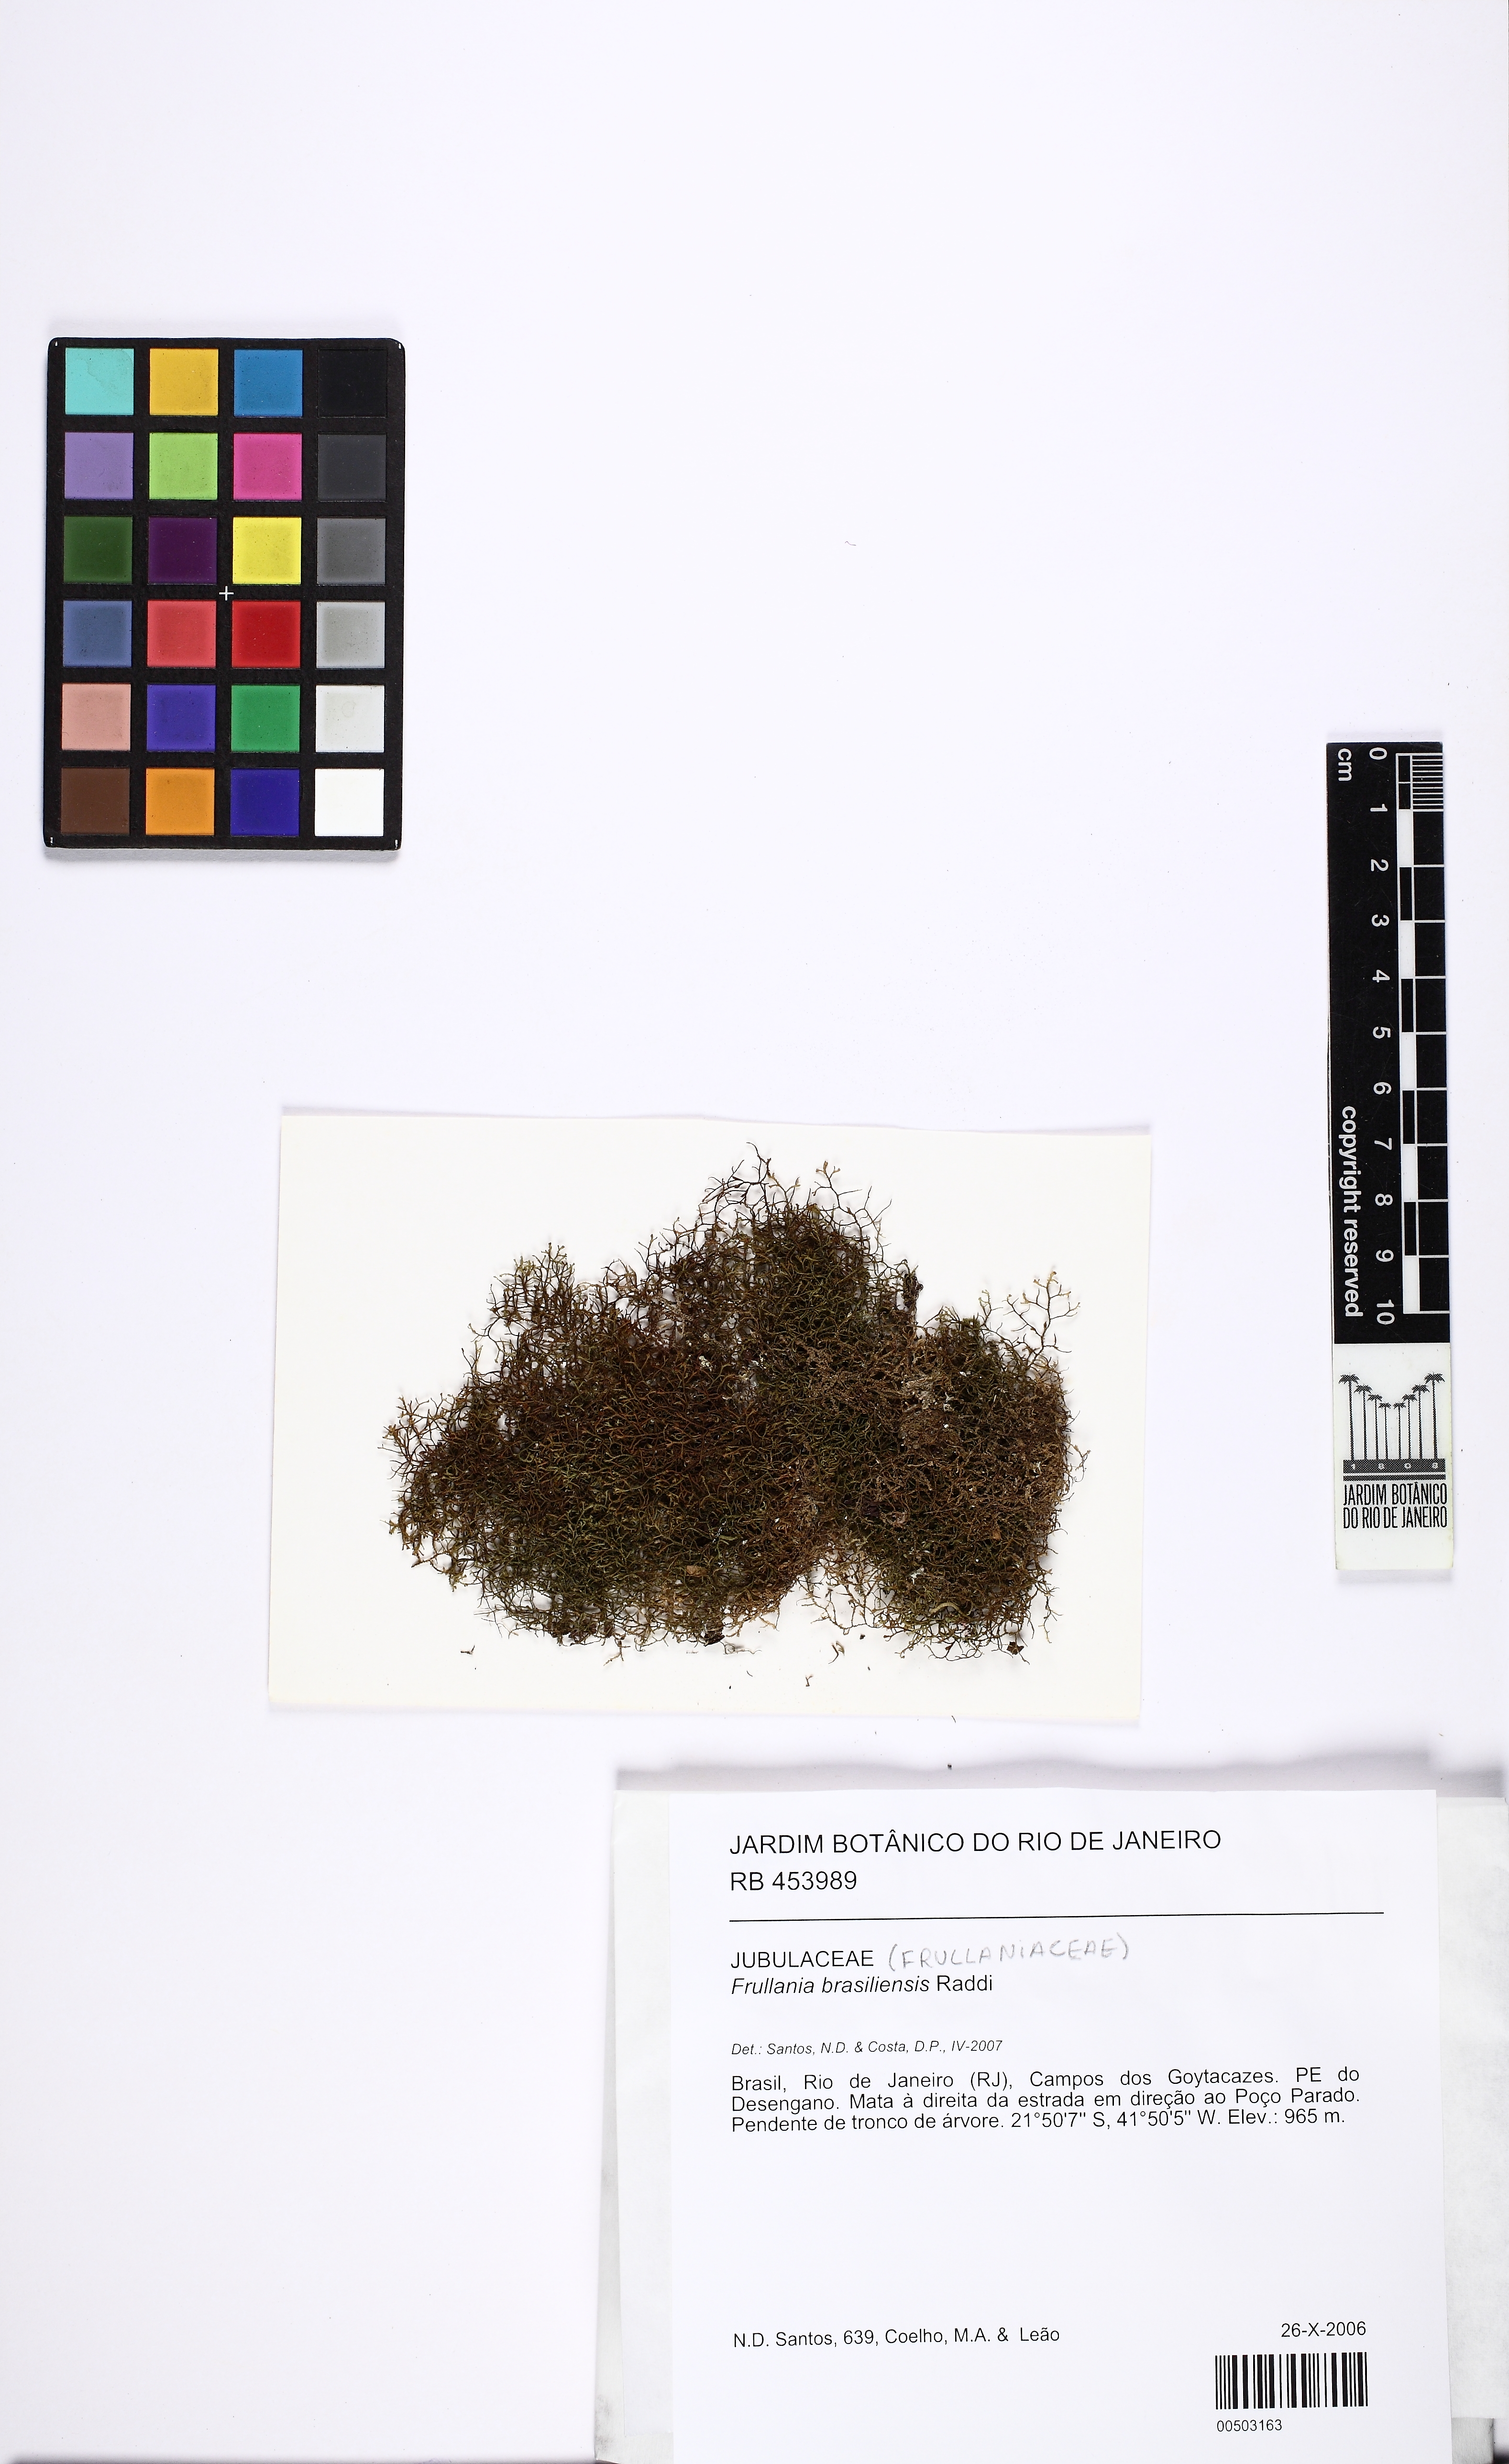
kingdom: Plantae
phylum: Marchantiophyta
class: Jungermanniopsida
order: Porellales
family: Frullaniaceae
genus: Frullania
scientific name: Frullania brasiliensis
